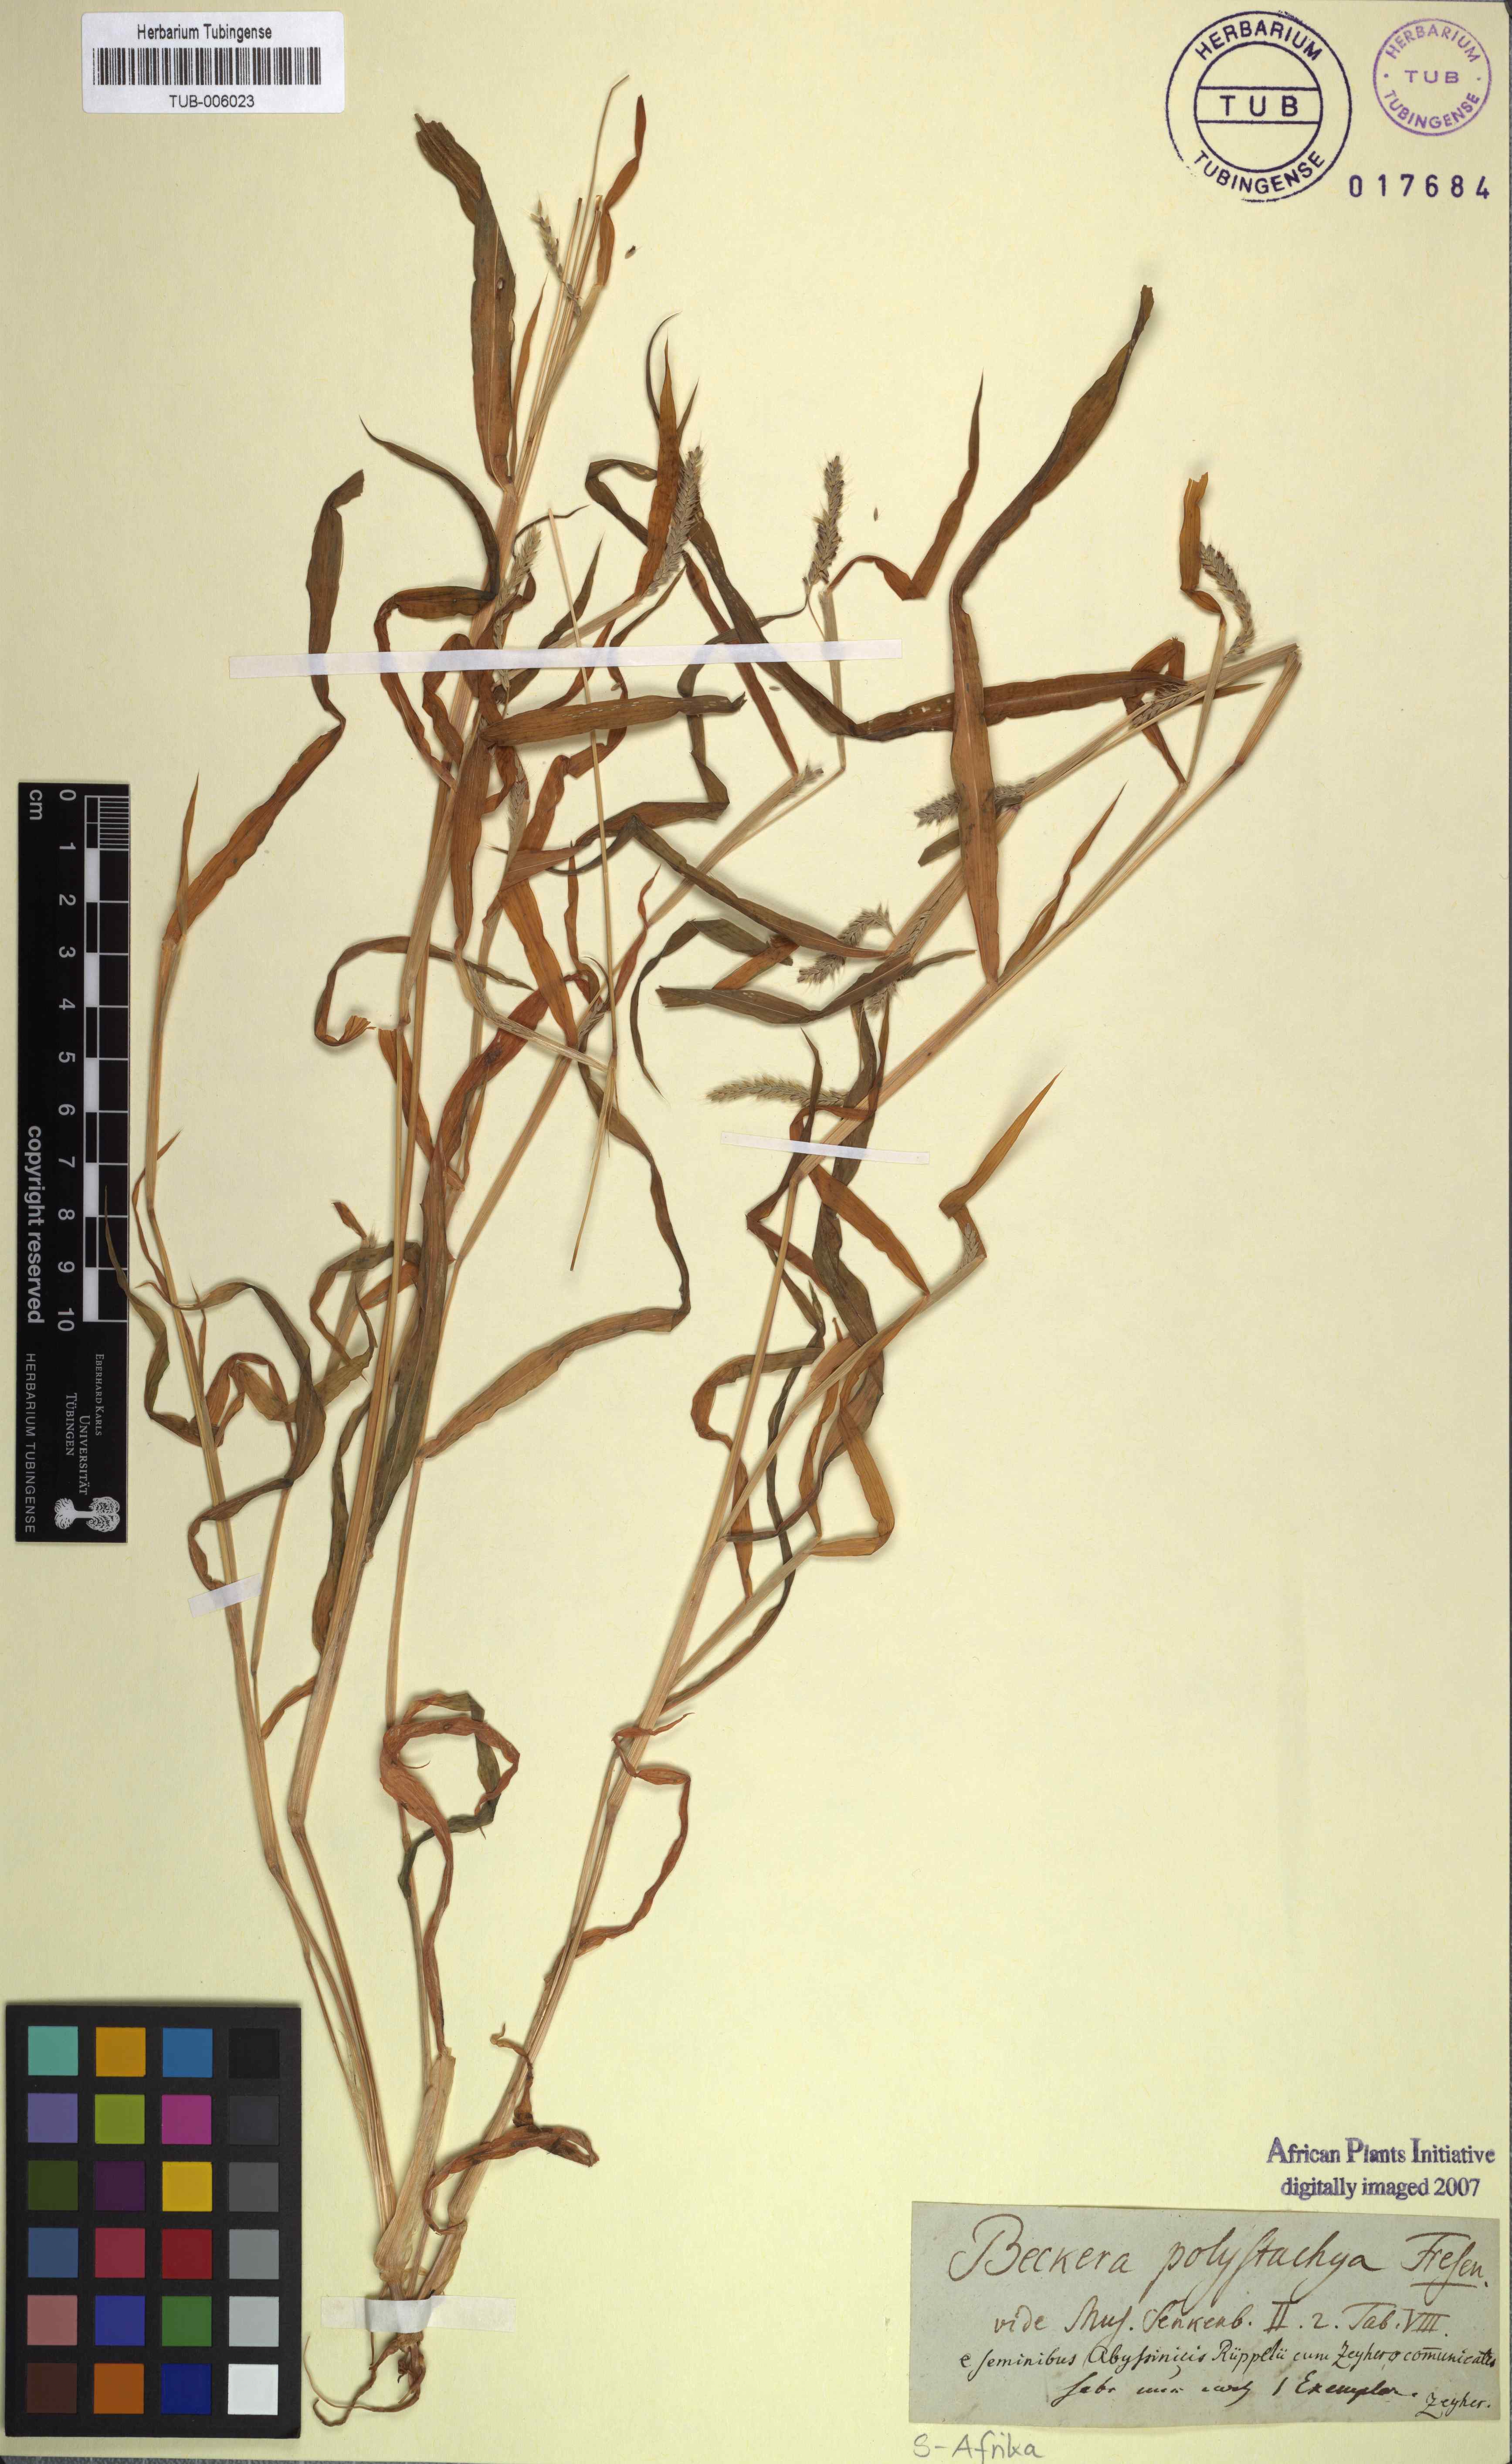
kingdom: Plantae
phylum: Tracheophyta
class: Liliopsida
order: Poales
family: Poaceae
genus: Snowdenia
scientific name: Snowdenia polystachya
